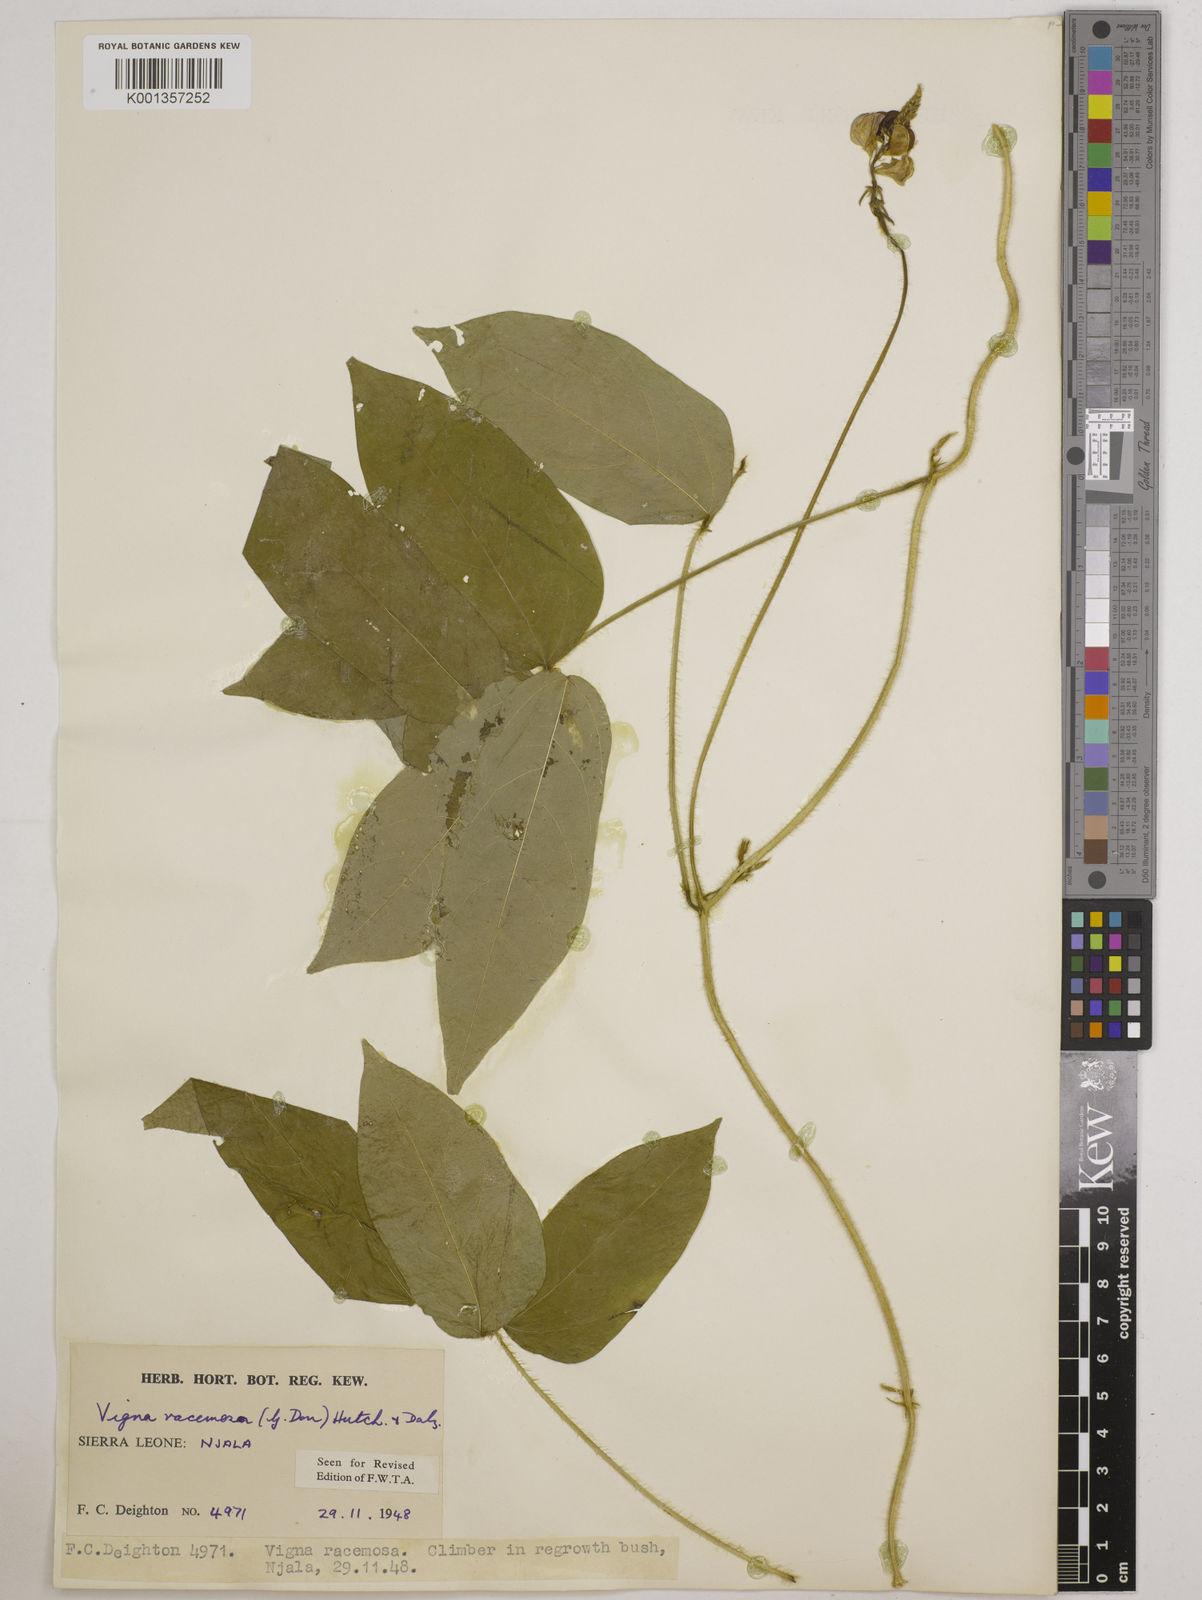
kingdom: Plantae
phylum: Tracheophyta
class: Magnoliopsida
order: Fabales
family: Fabaceae
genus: Vigna
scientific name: Vigna racemosa
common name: Beans not eaten
